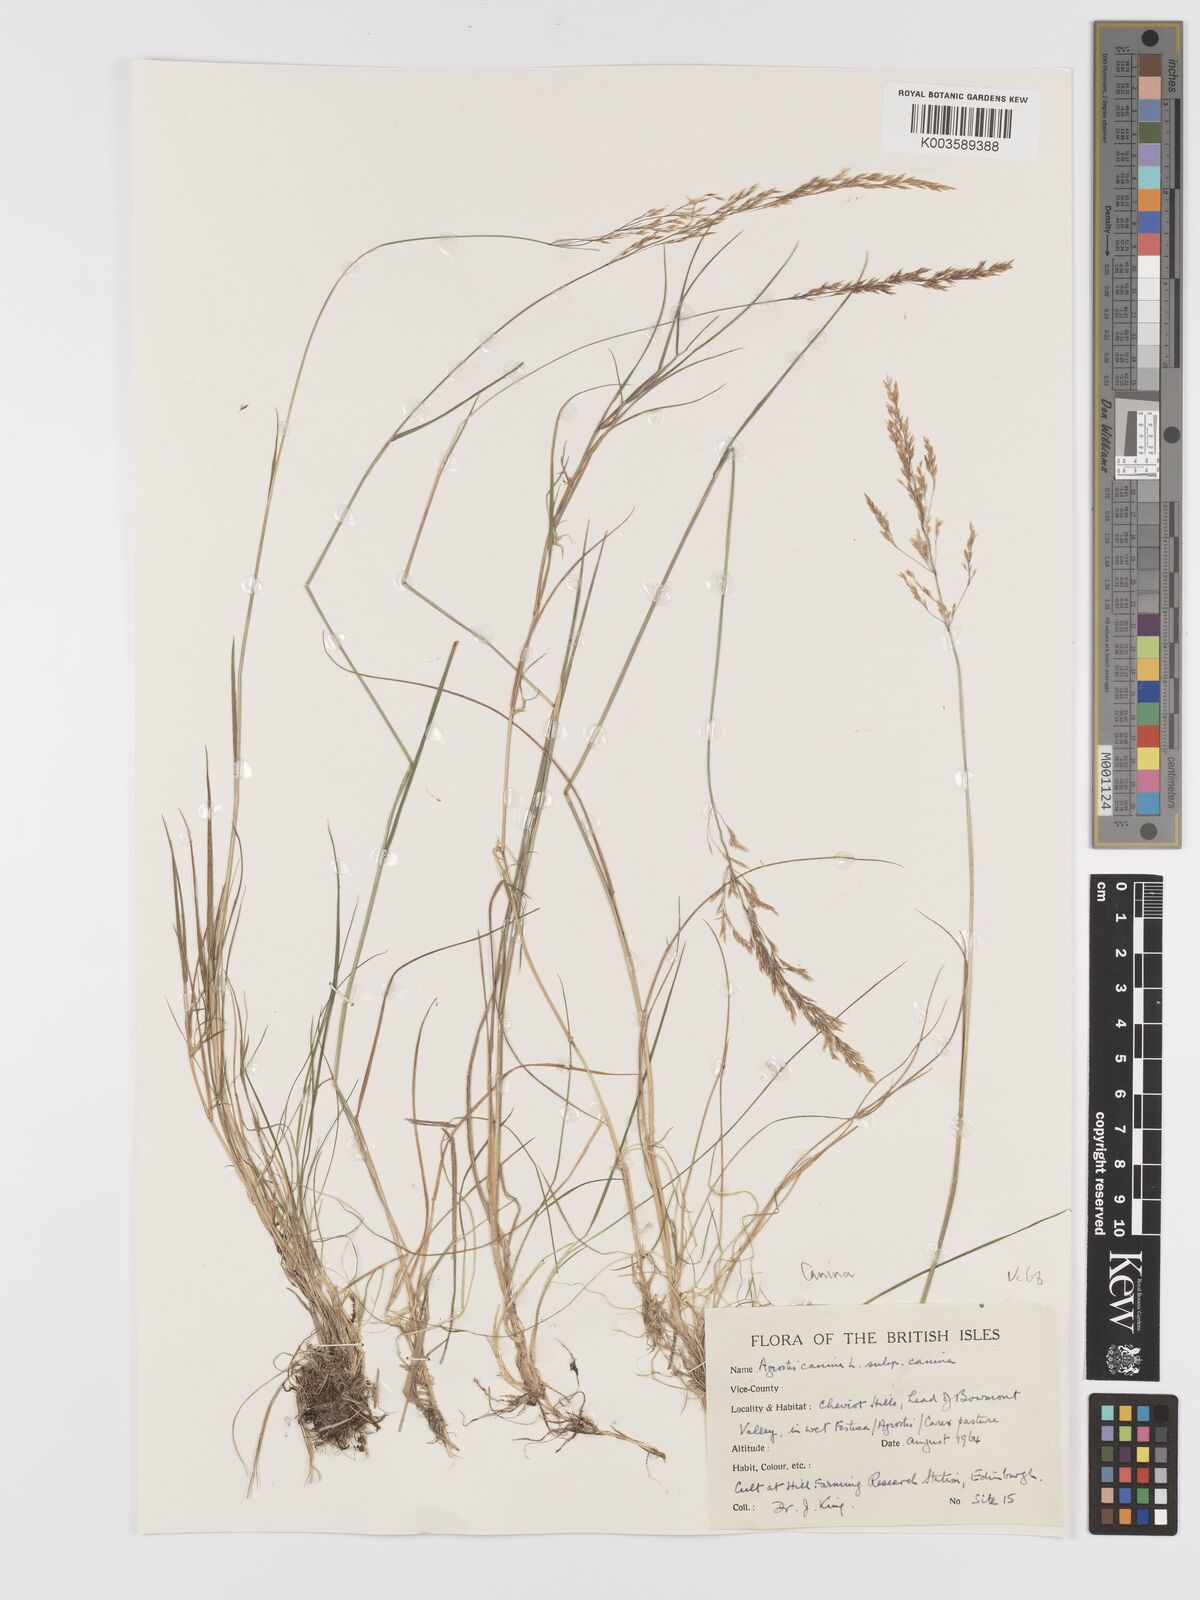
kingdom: Plantae
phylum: Tracheophyta
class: Liliopsida
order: Poales
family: Poaceae
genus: Agrostis
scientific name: Agrostis canina
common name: Velvet bent
